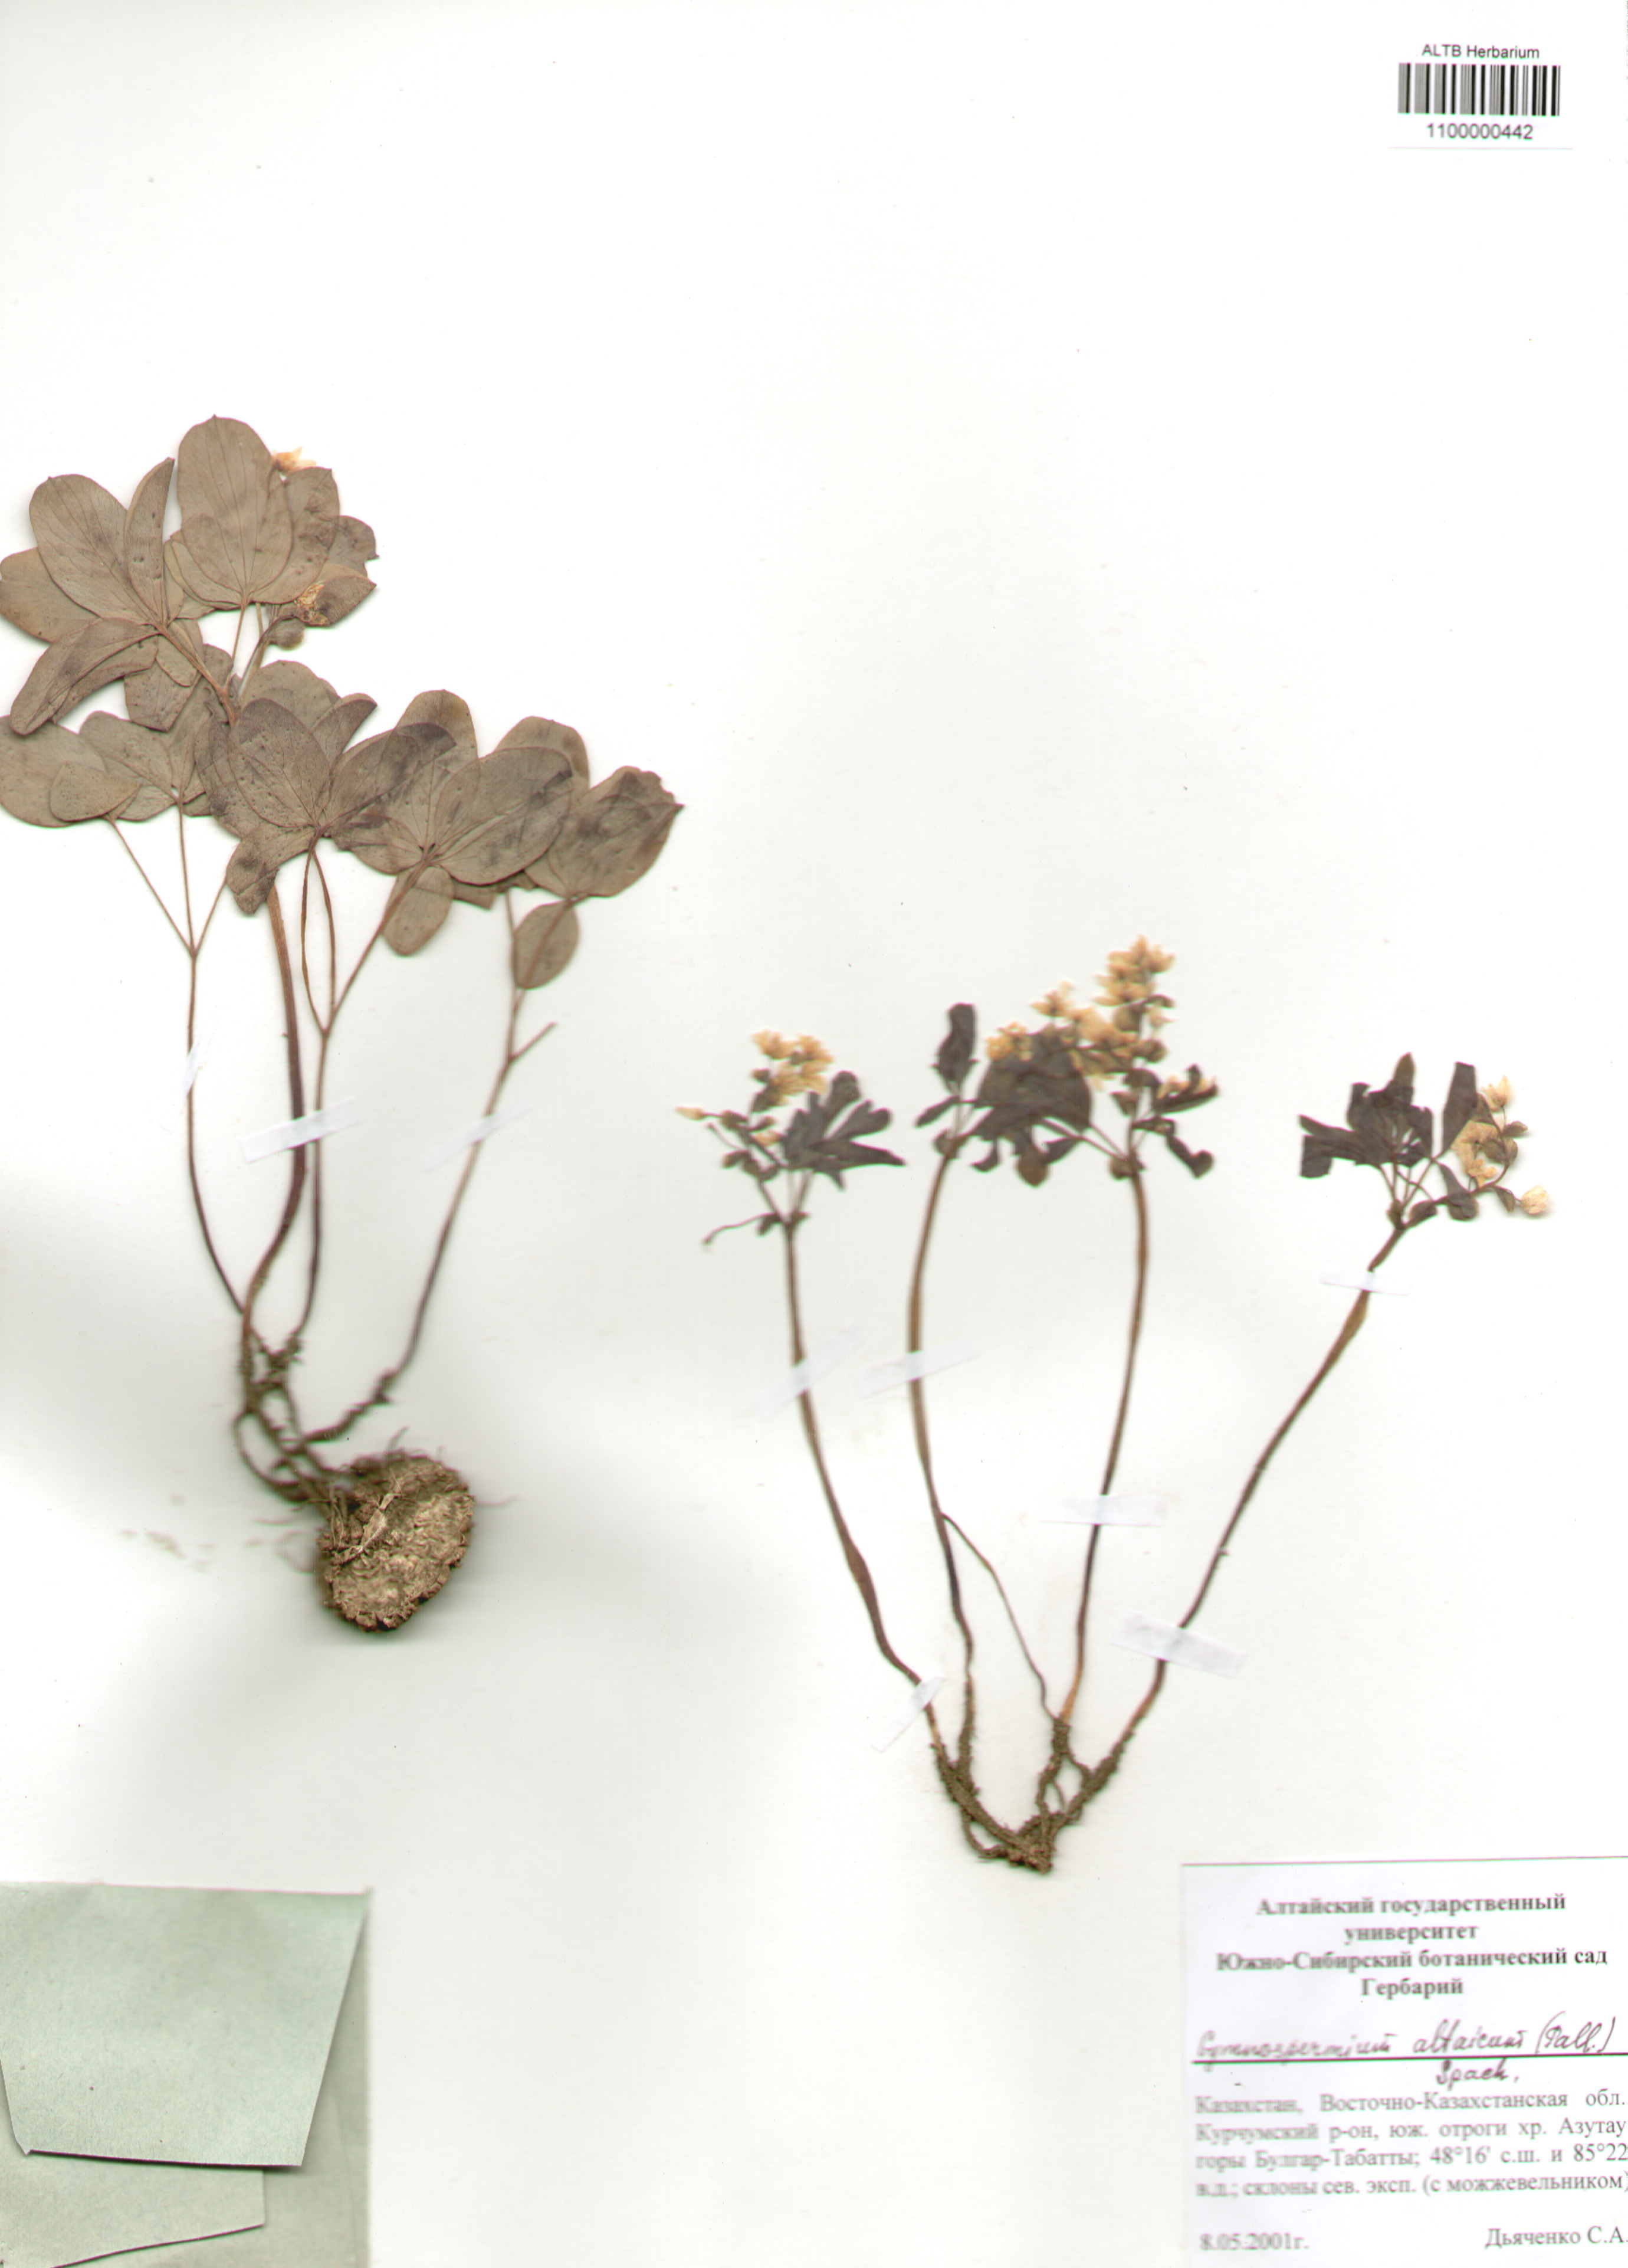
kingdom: Plantae
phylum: Tracheophyta
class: Magnoliopsida
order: Ranunculales
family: Berberidaceae
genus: Gymnospermium
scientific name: Gymnospermium altaicum
